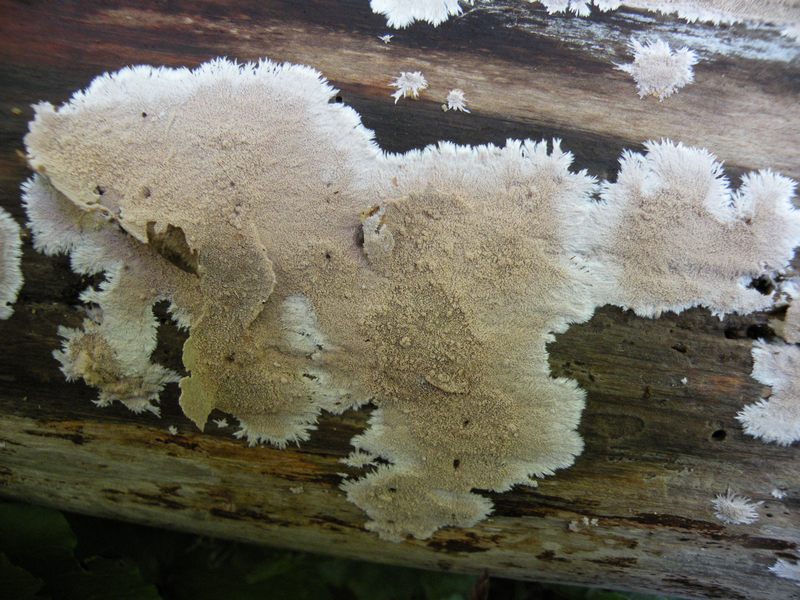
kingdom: Fungi
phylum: Basidiomycota
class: Agaricomycetes
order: Polyporales
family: Steccherinaceae
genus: Steccherinum
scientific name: Steccherinum fimbriatum
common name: trådet skønpig
